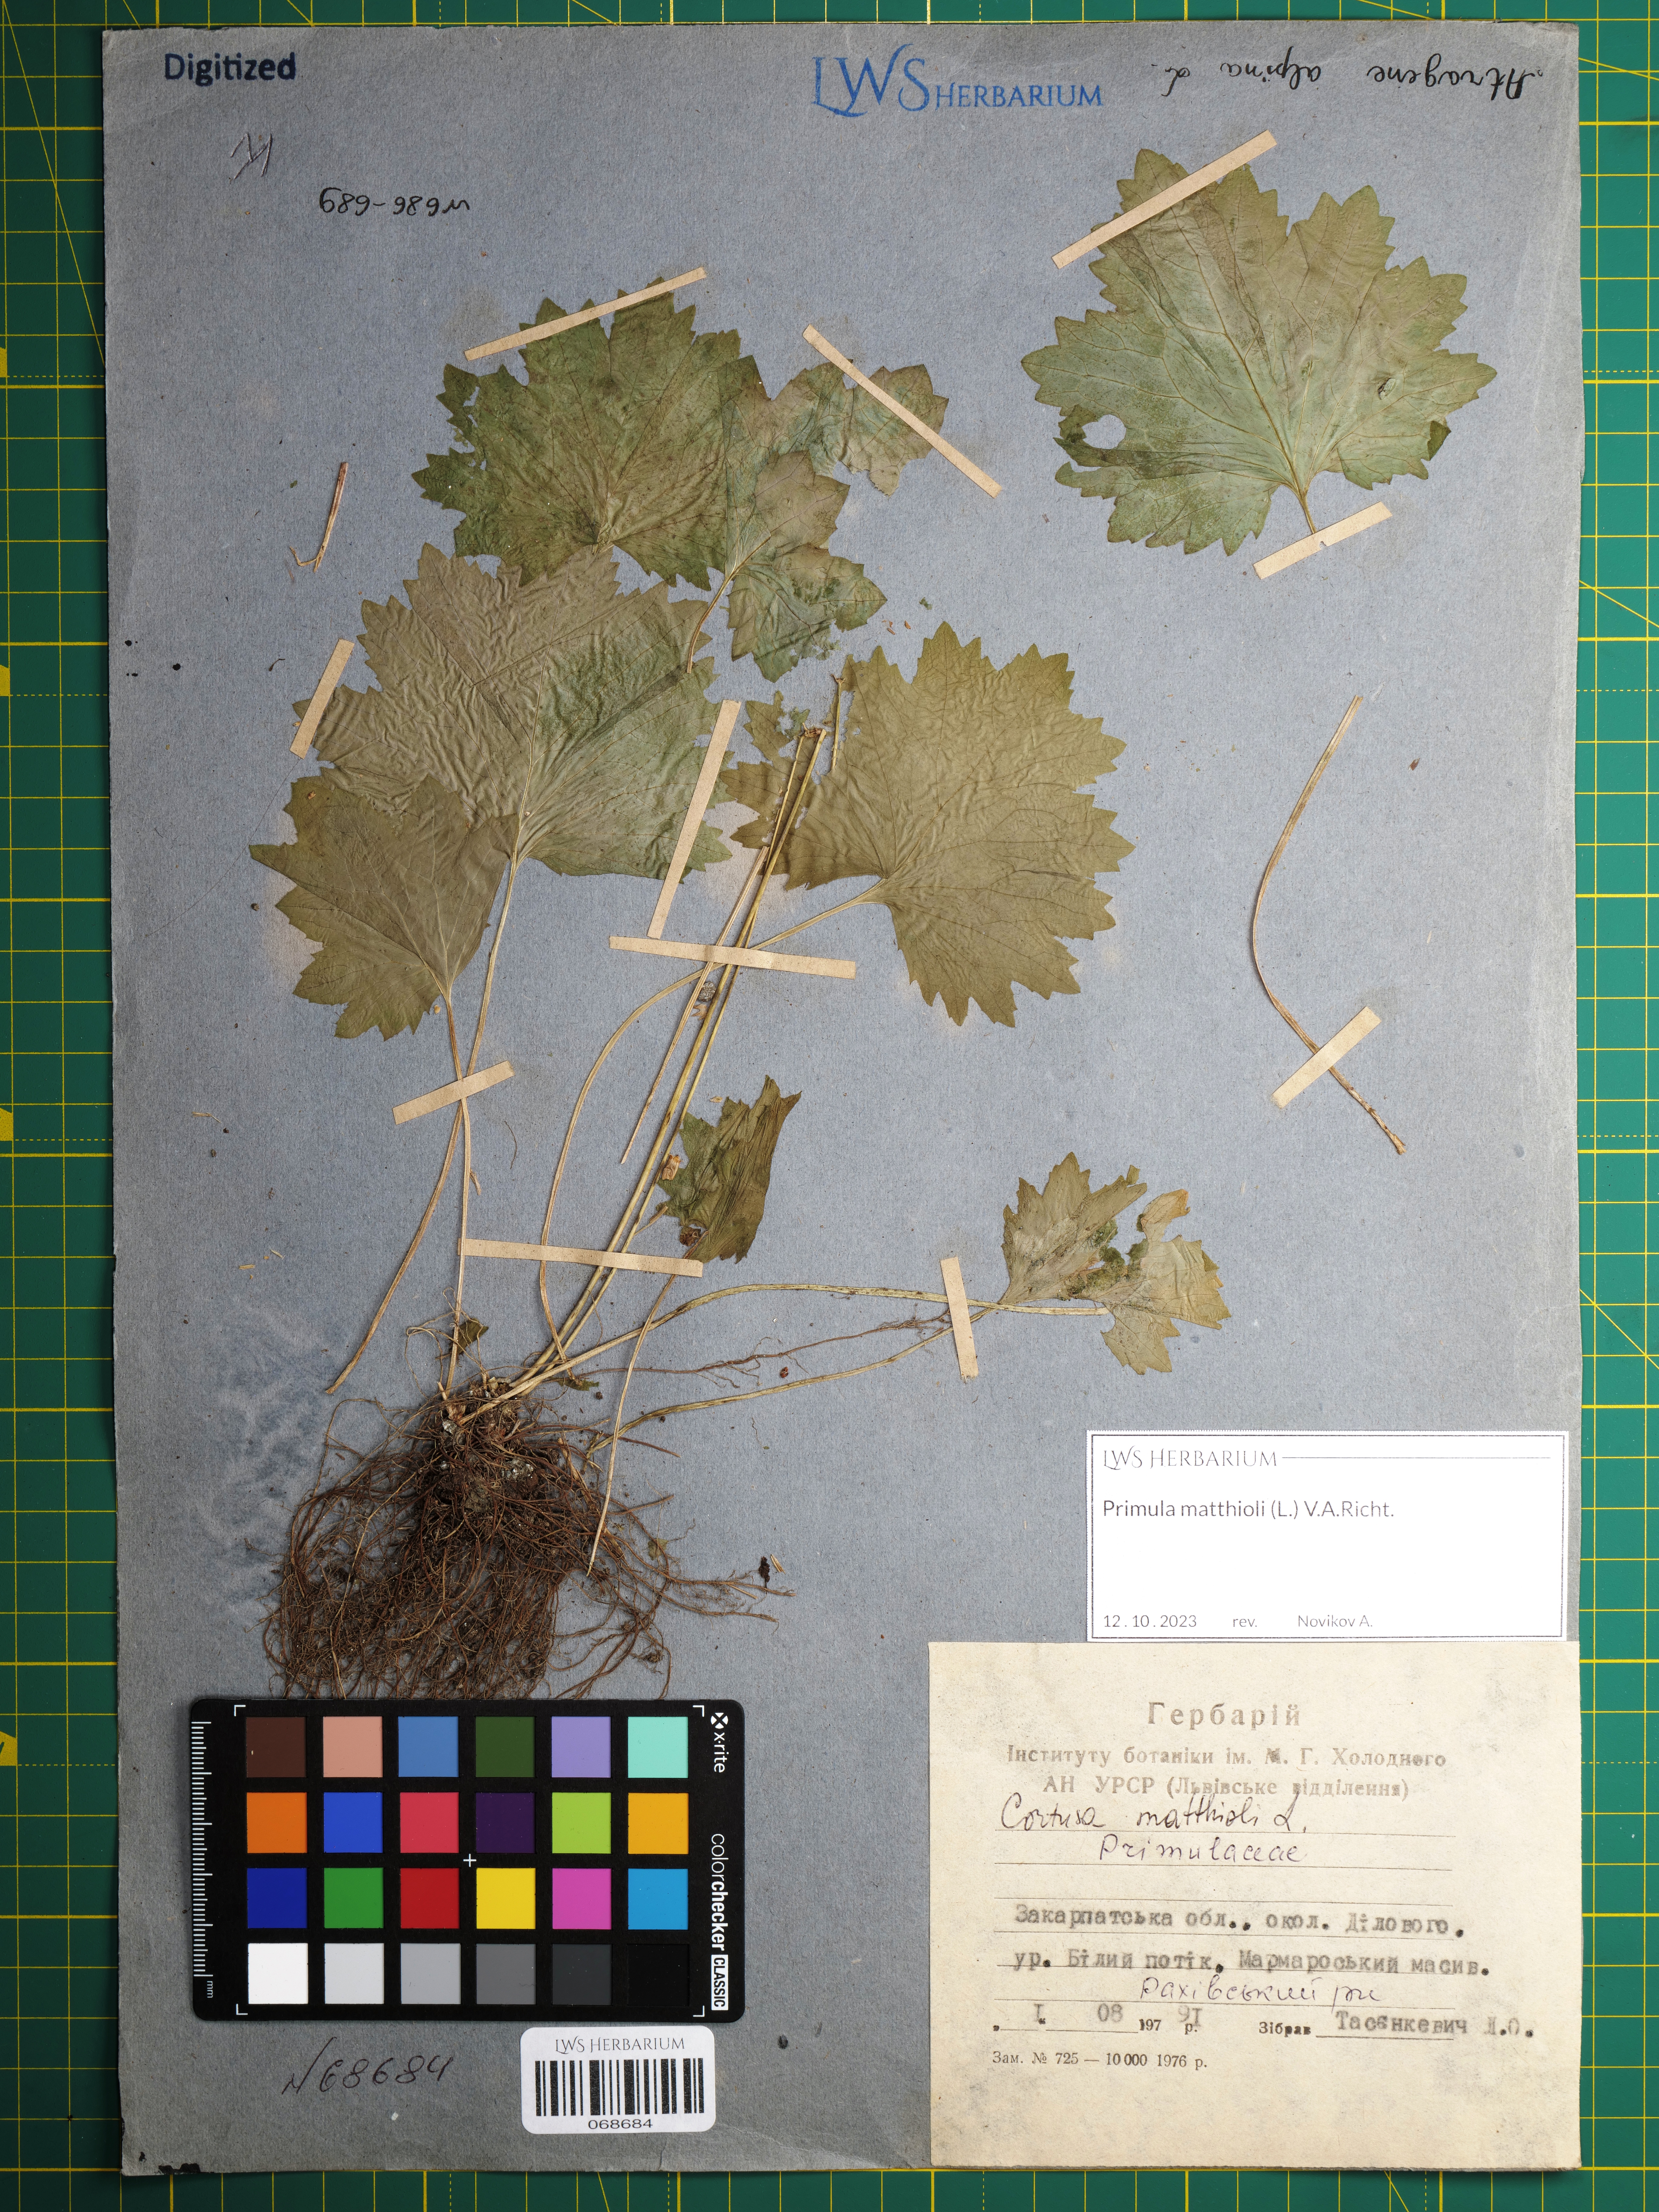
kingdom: Plantae
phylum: Tracheophyta
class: Magnoliopsida
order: Ericales
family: Primulaceae
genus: Primula
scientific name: Primula matthioli
